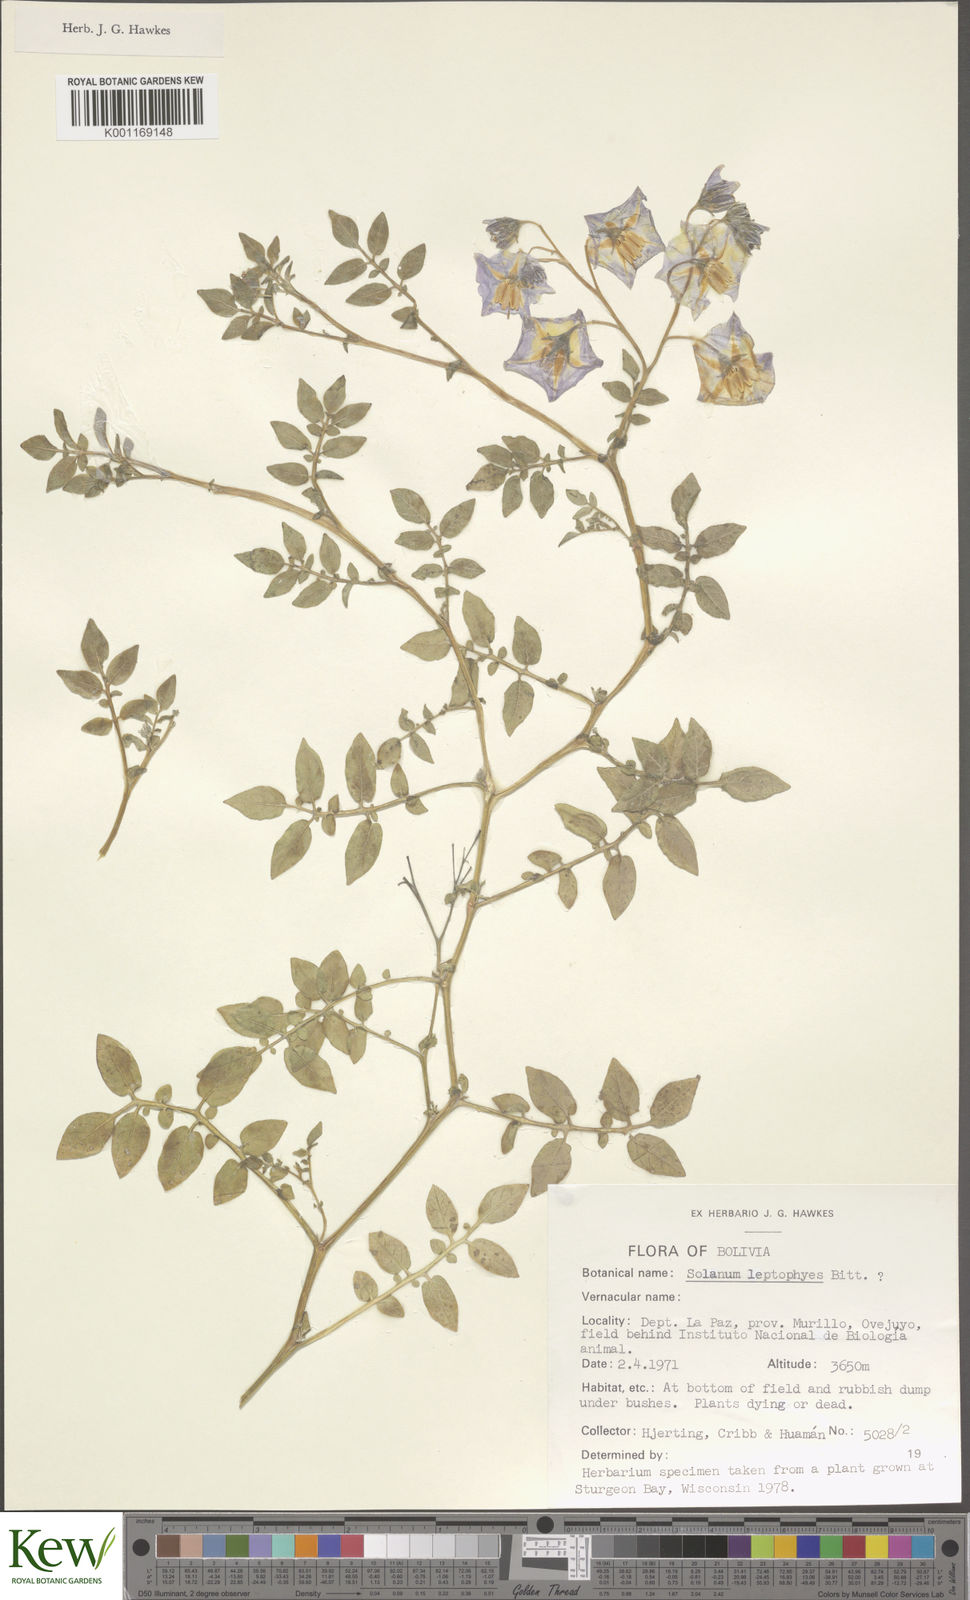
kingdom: Plantae
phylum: Tracheophyta
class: Magnoliopsida
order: Solanales
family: Solanaceae
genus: Solanum
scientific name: Solanum brevicaule
